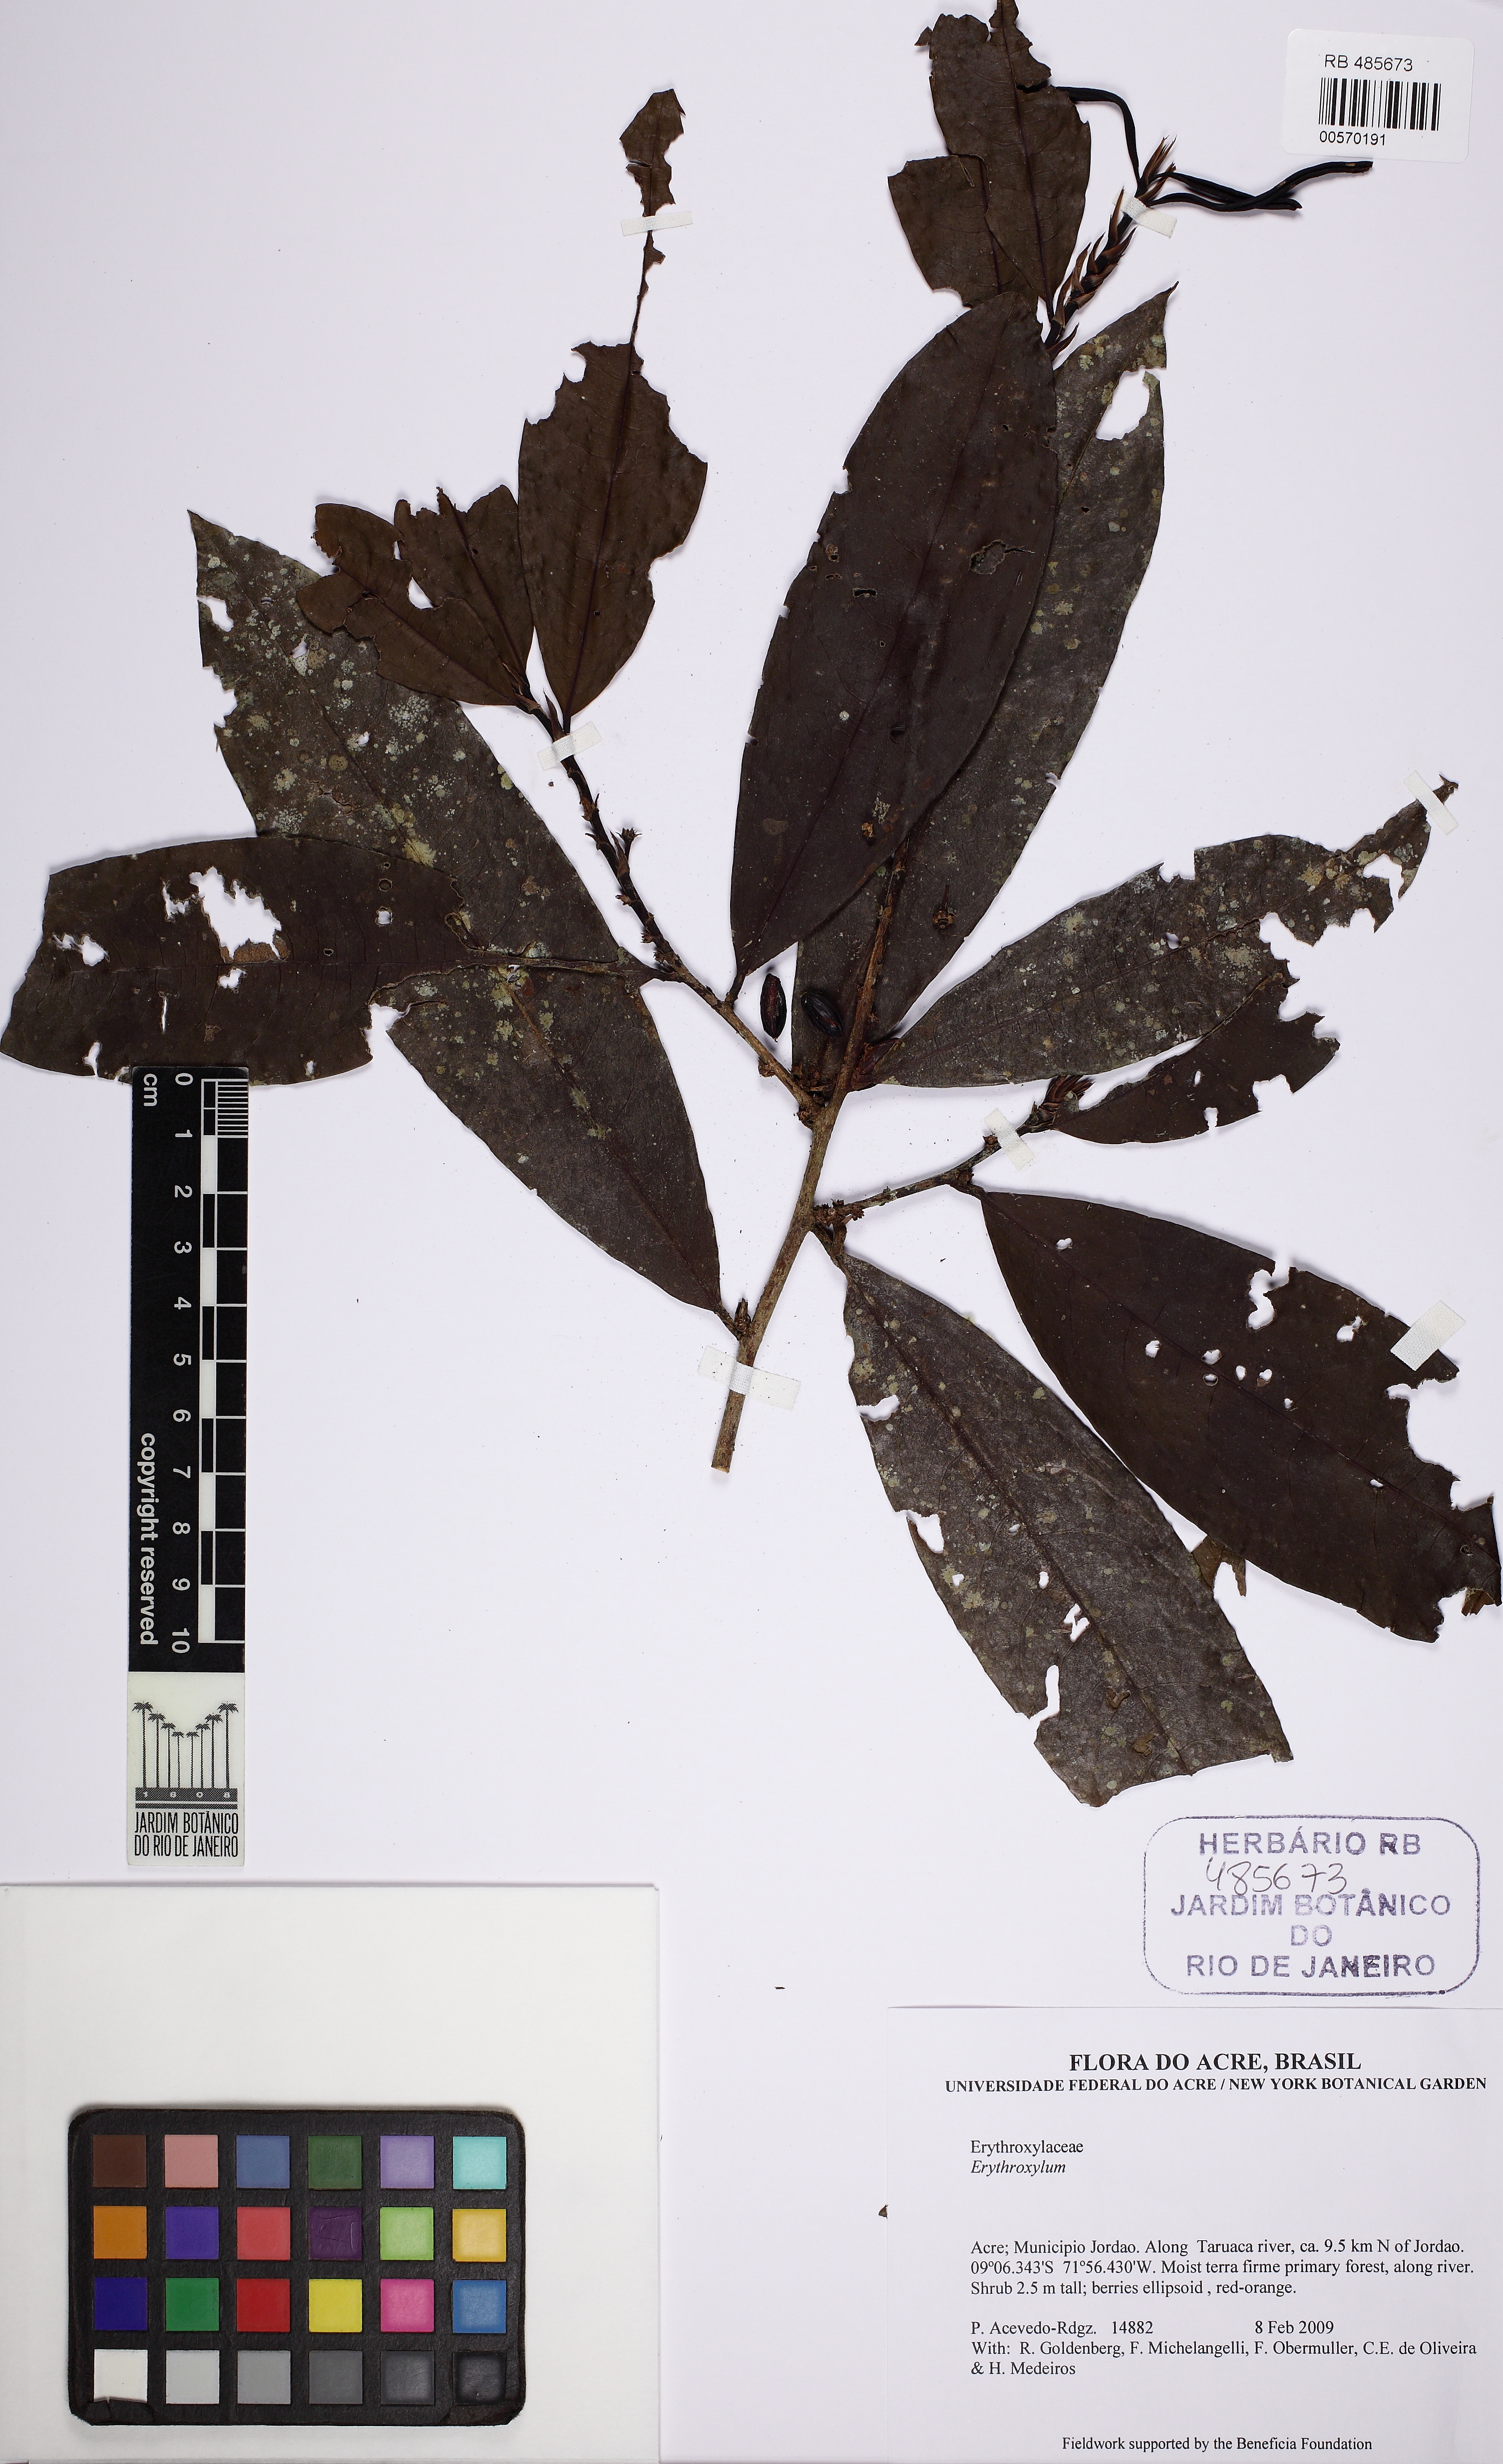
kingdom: Plantae
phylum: Tracheophyta
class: Magnoliopsida
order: Malpighiales
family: Erythroxylaceae
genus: Erythroxylum
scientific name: Erythroxylum
